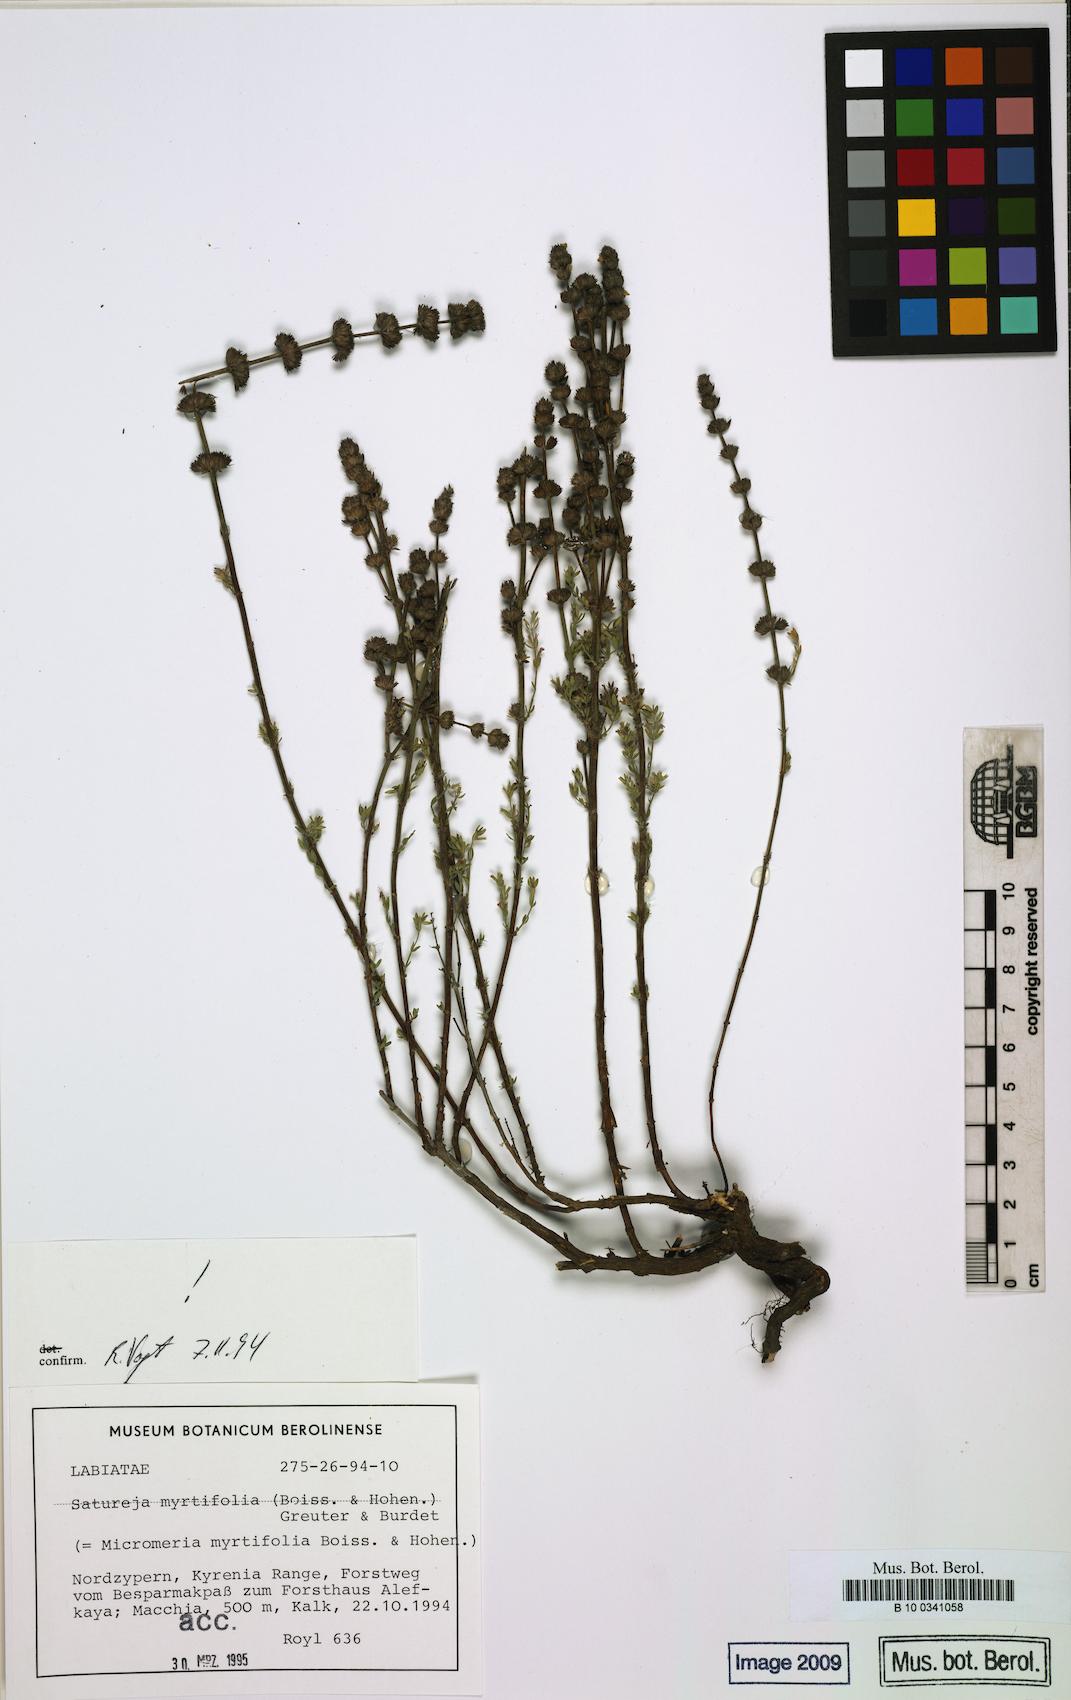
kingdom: Plantae
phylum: Tracheophyta
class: Magnoliopsida
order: Lamiales
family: Lamiaceae
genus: Micromeria
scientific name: Micromeria myrtifolia
